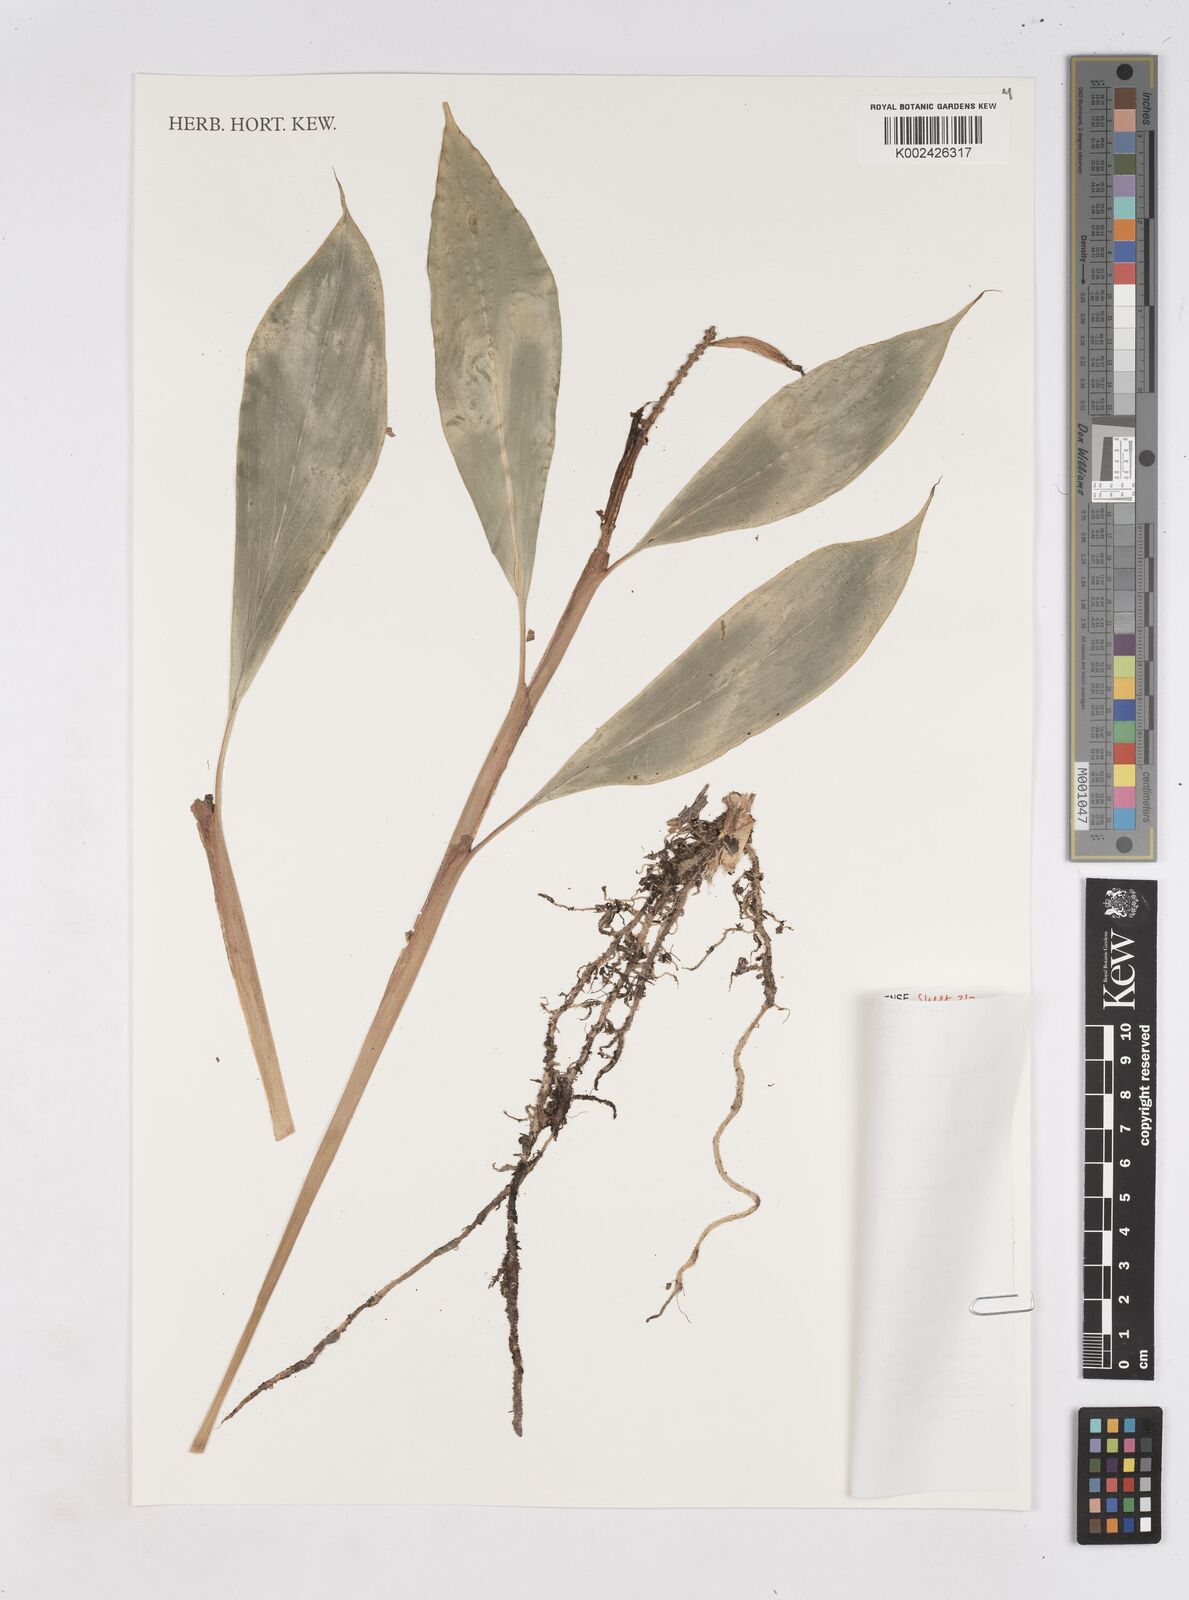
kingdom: Plantae
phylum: Tracheophyta
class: Liliopsida
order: Zingiberales
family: Zingiberaceae
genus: Burbidgea
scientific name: Burbidgea schizocheila
